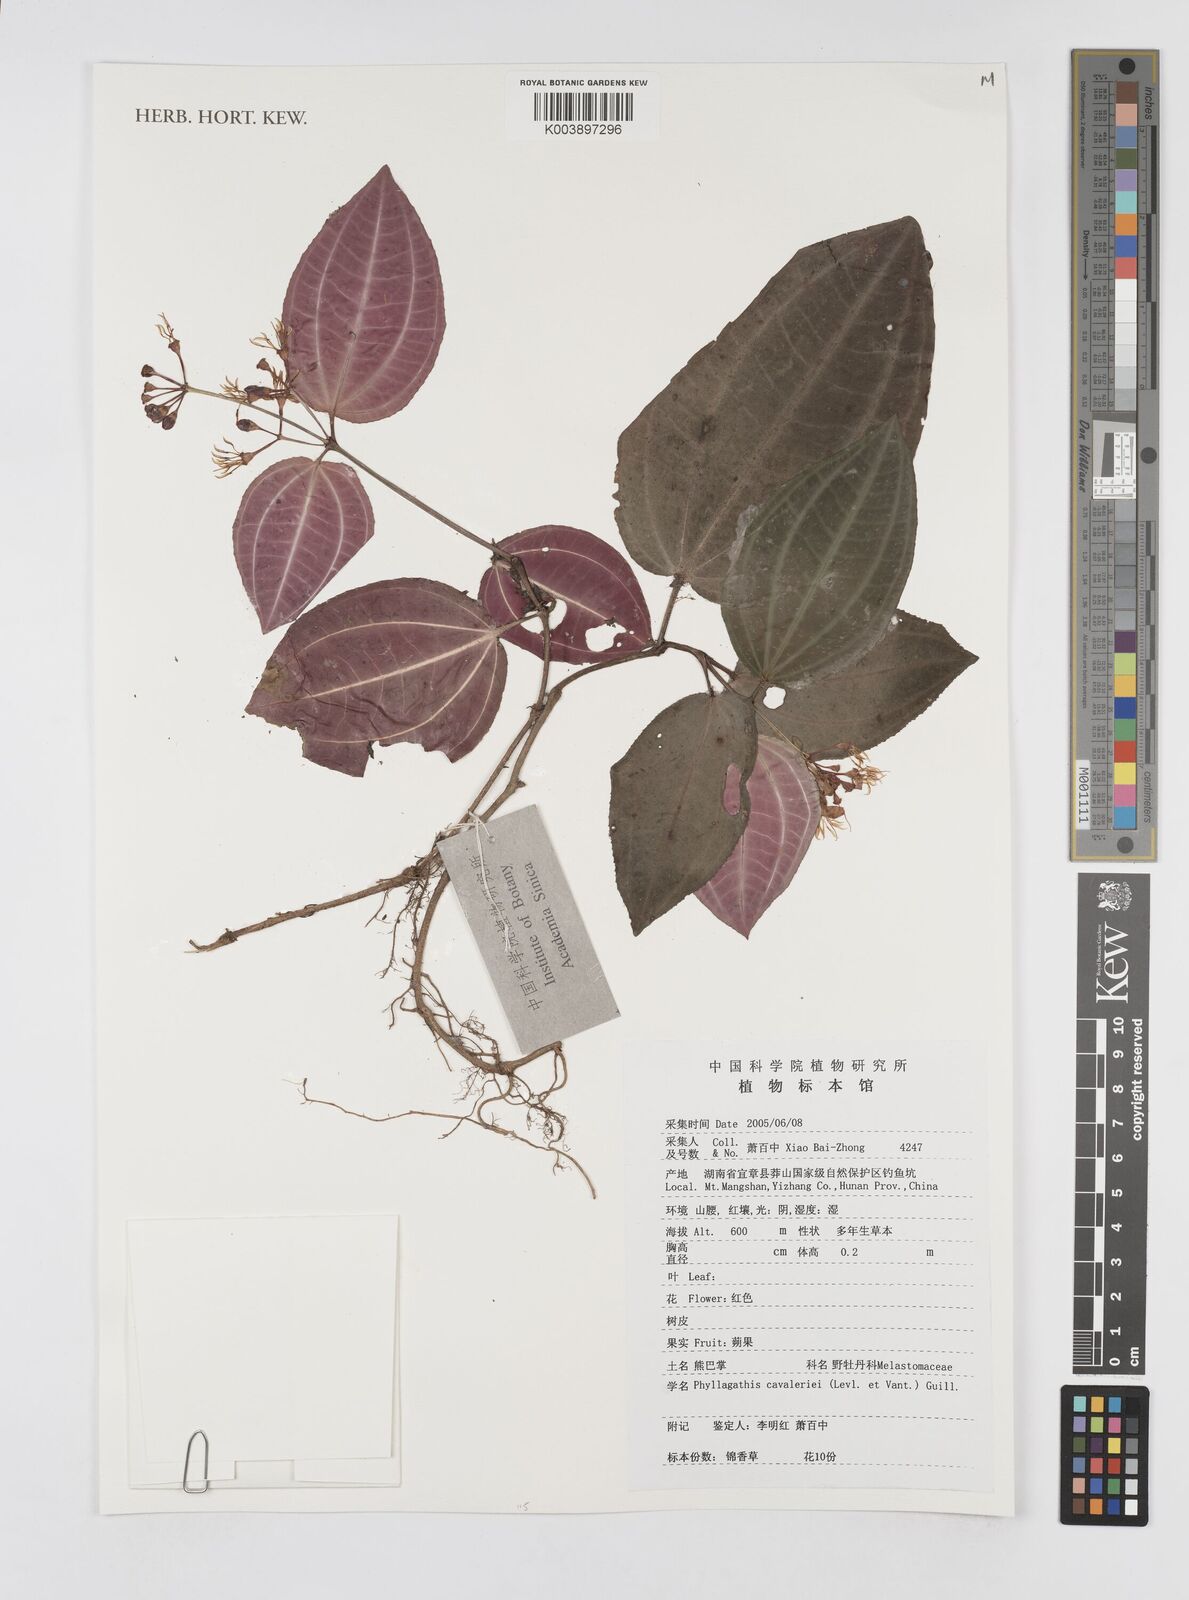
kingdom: Plantae
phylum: Tracheophyta
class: Magnoliopsida
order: Myrtales
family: Melastomataceae
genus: Phyllagathis
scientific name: Phyllagathis cavaleriei
